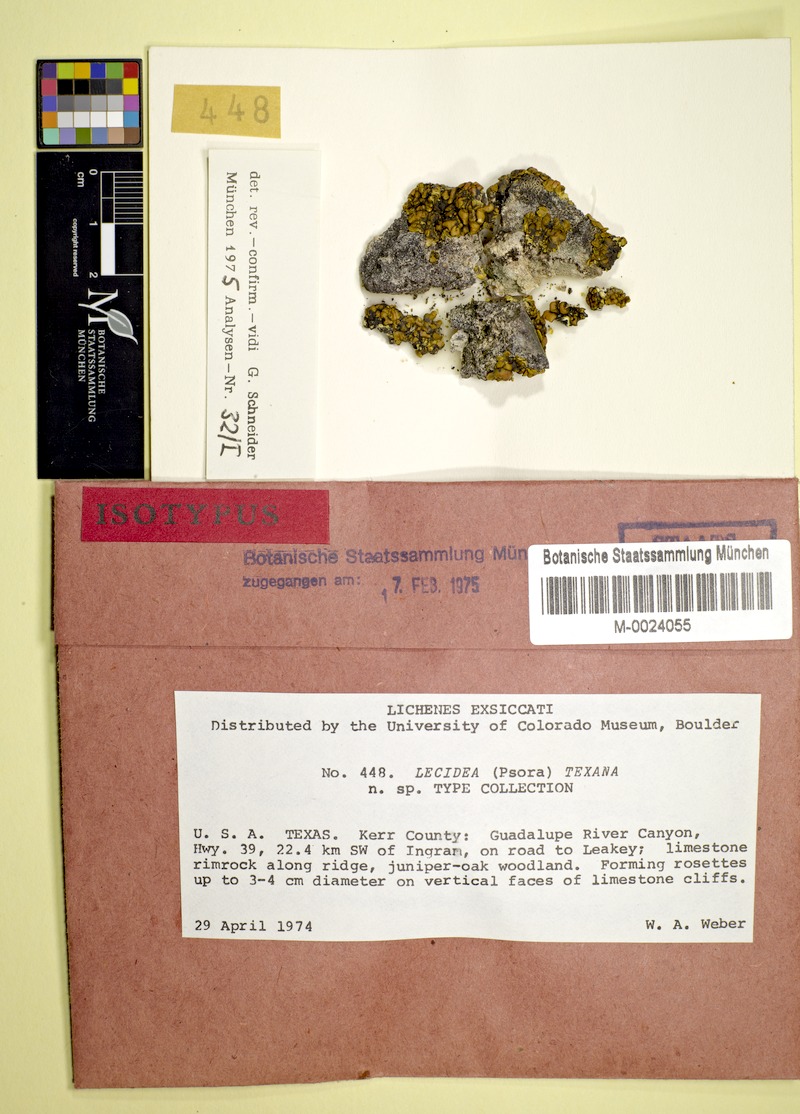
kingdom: Fungi
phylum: Ascomycota
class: Lecanoromycetes
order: Lecanorales
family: Catillariaceae
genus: Xanthopsorella
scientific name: Xanthopsorella texana
